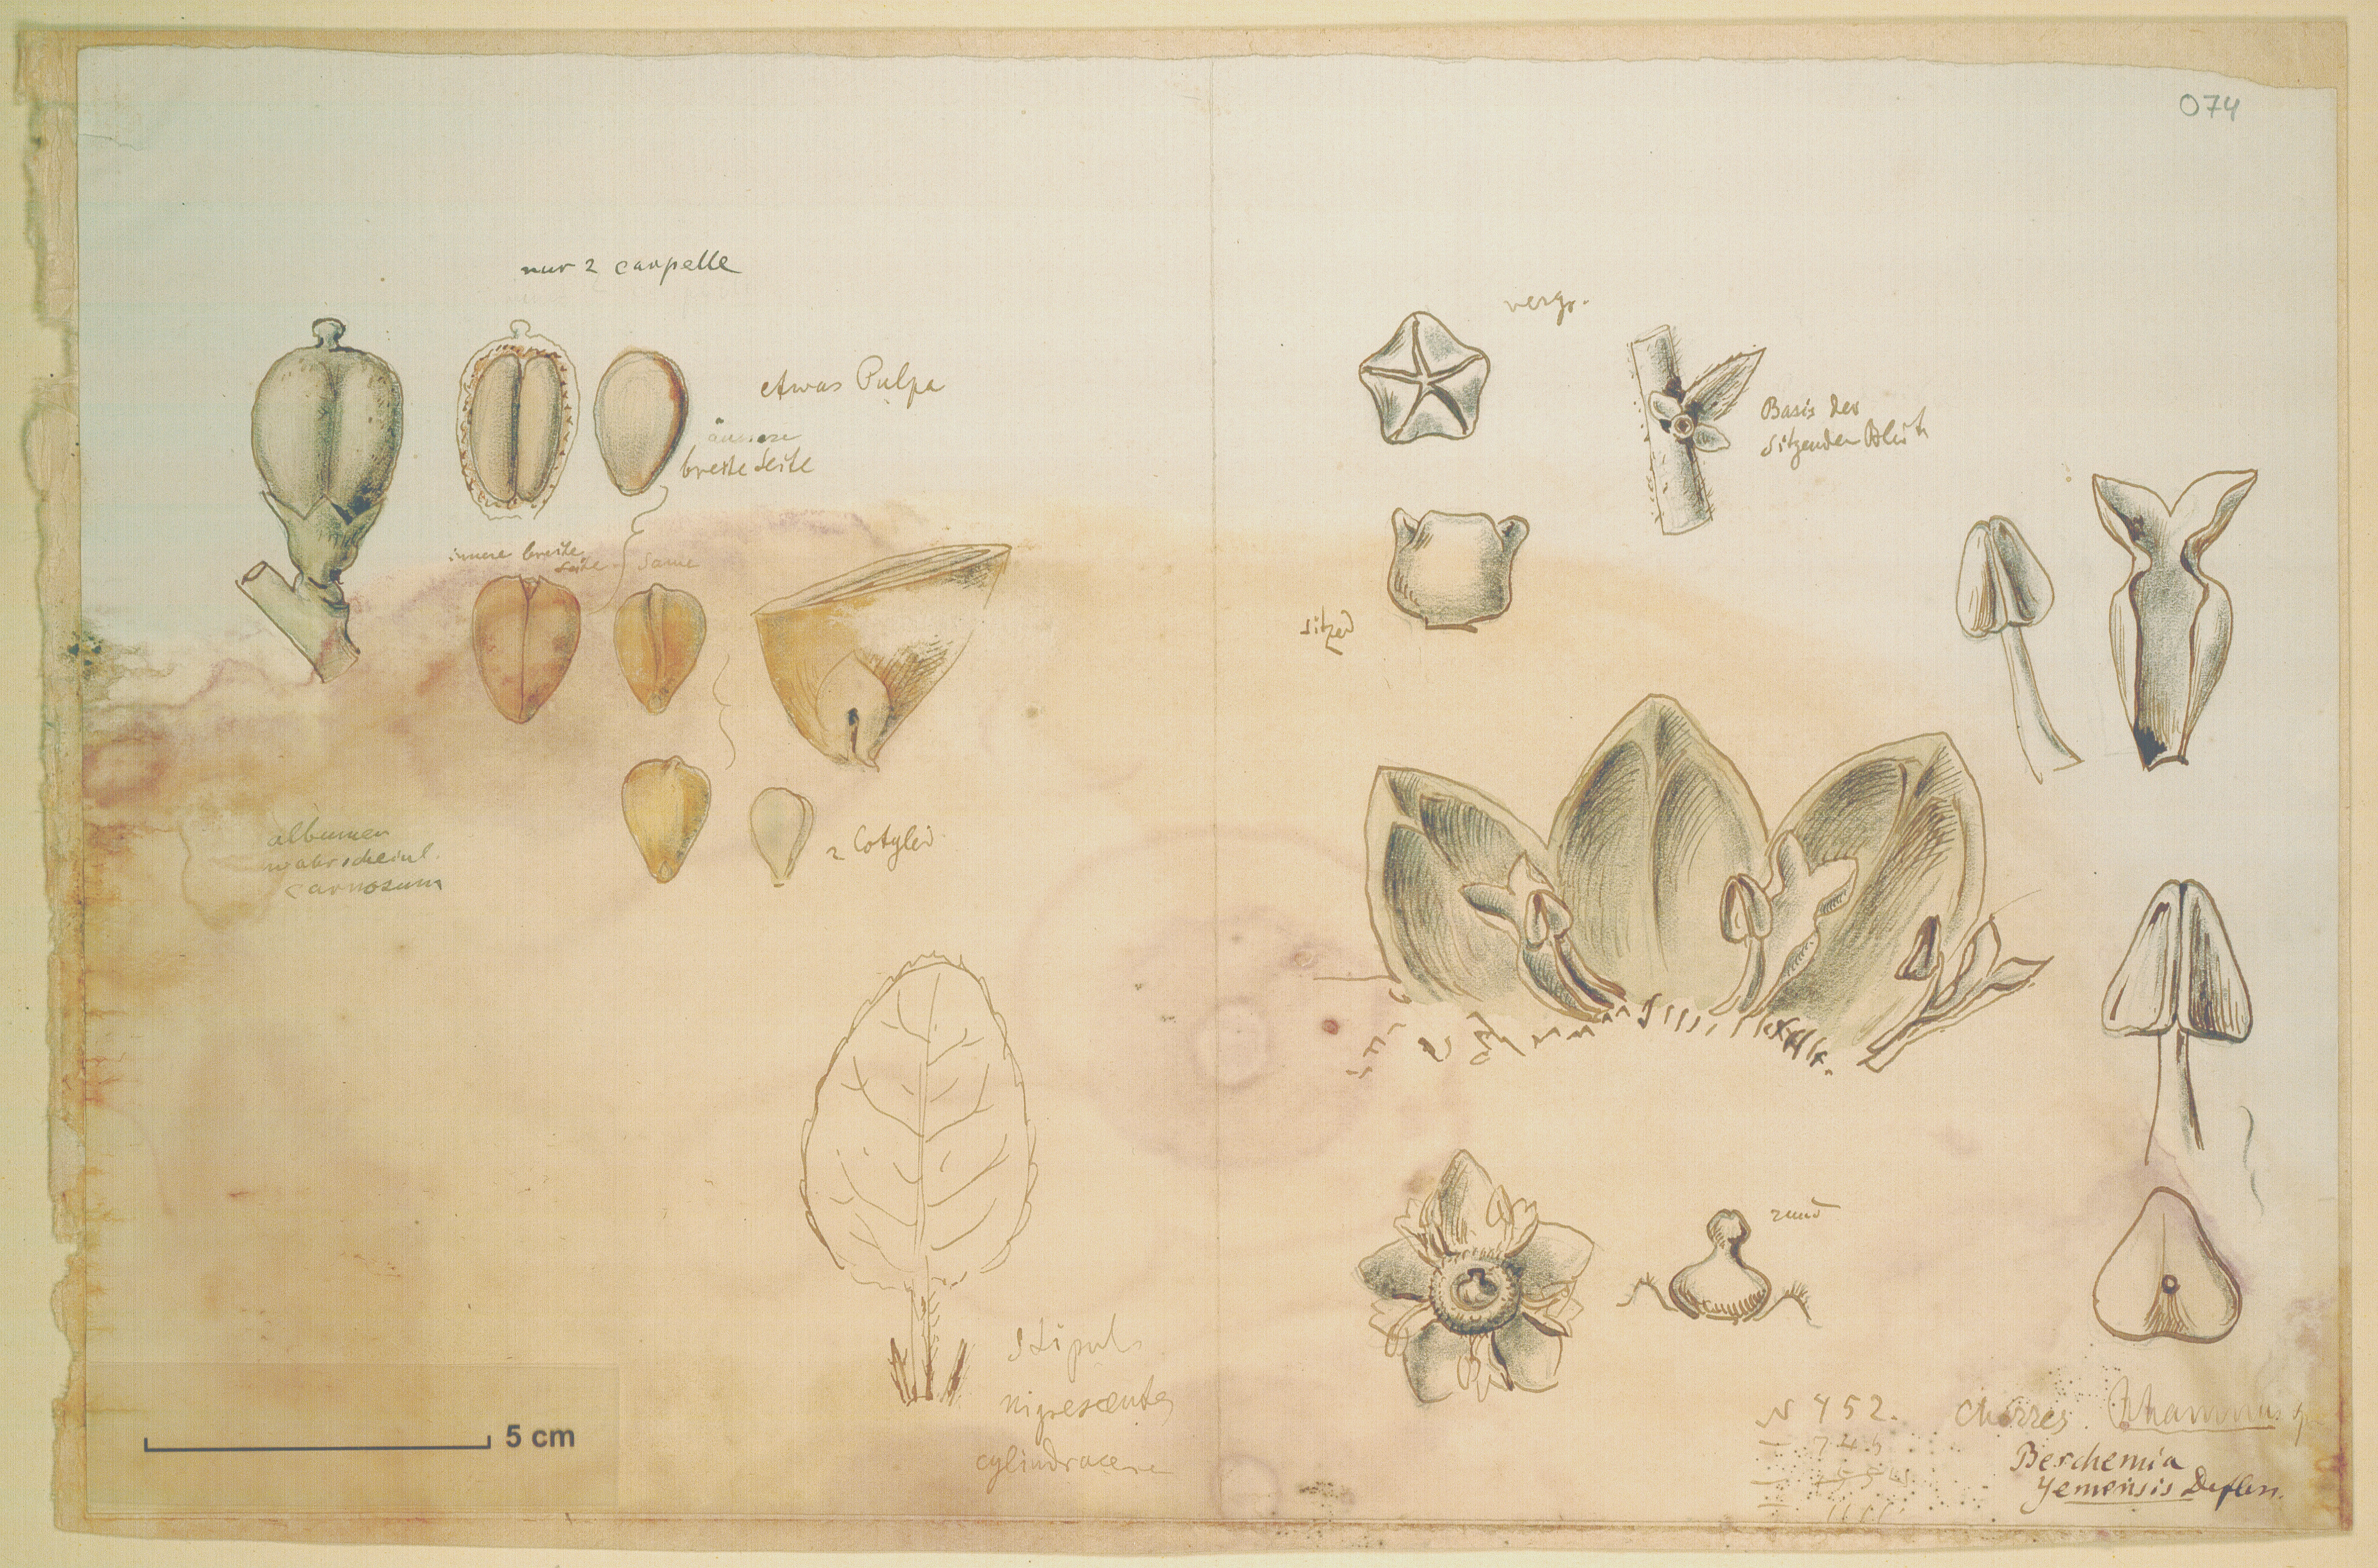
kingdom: Plantae
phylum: Tracheophyta
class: Magnoliopsida
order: Rosales
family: Rhamnaceae
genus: Sageretia
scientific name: Sageretia thea
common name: Pauper's-tea
